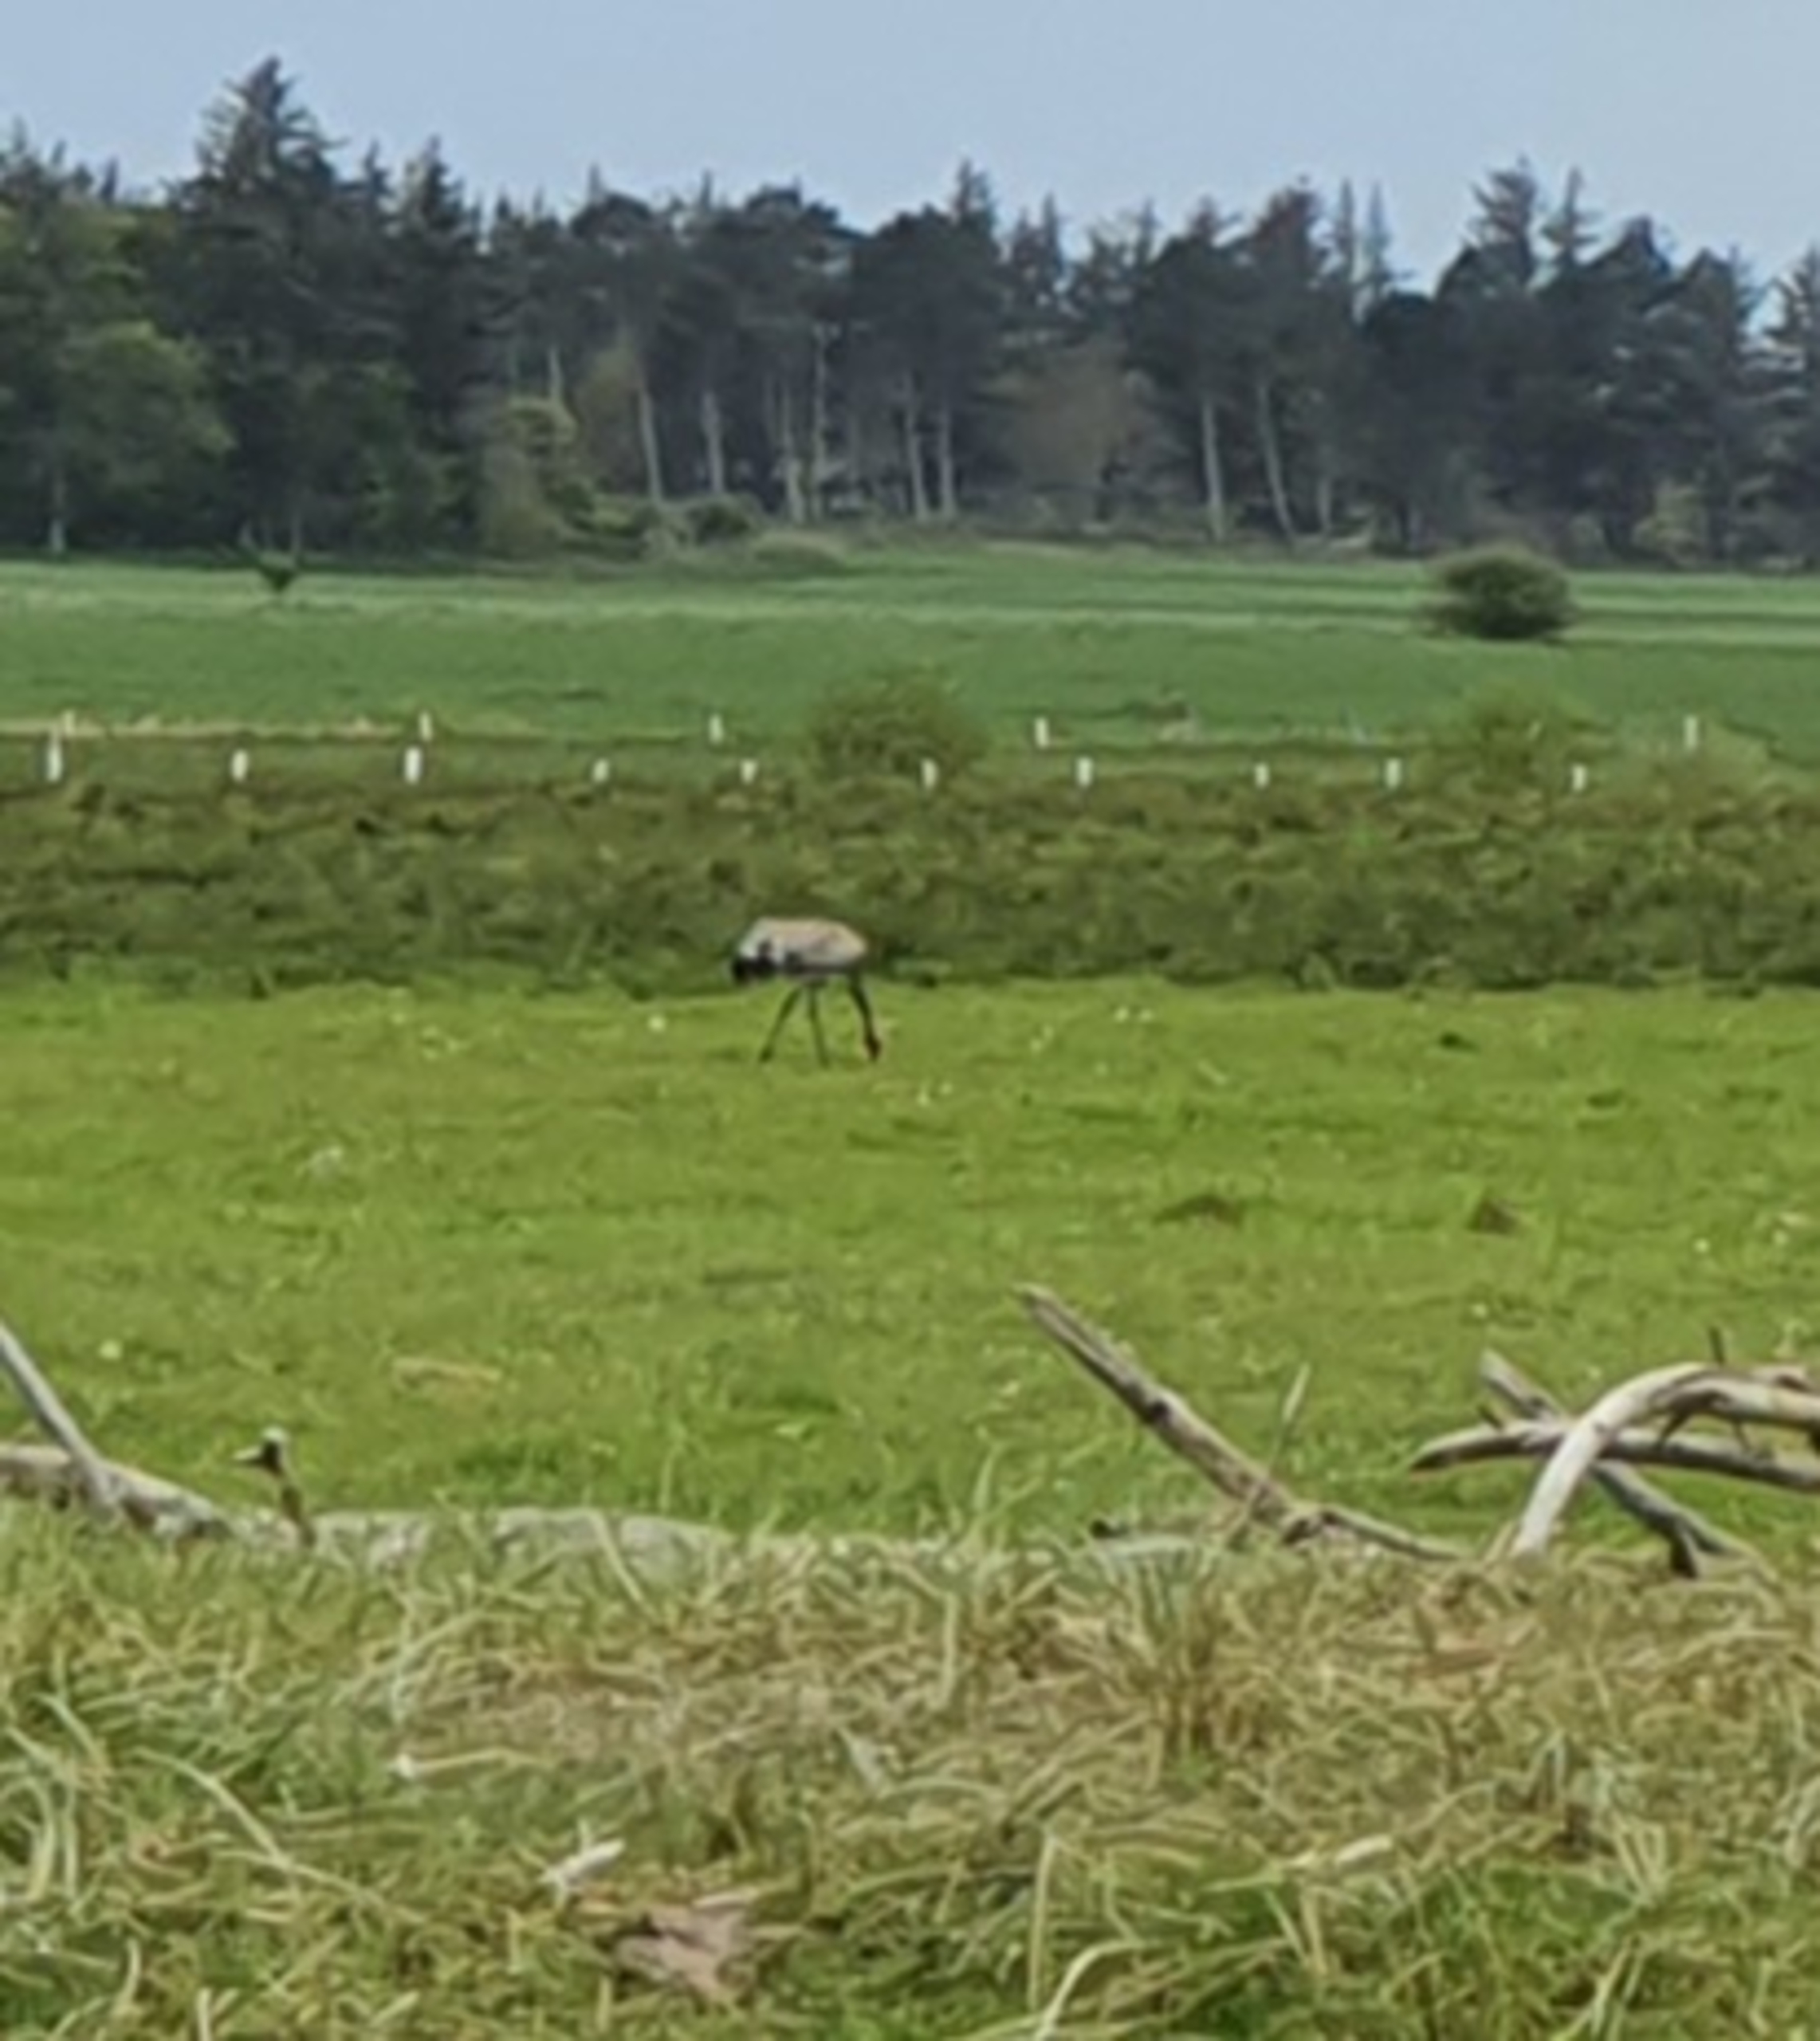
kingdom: Animalia
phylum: Chordata
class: Aves
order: Gruiformes
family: Gruidae
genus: Grus
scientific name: Grus grus
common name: Trane
